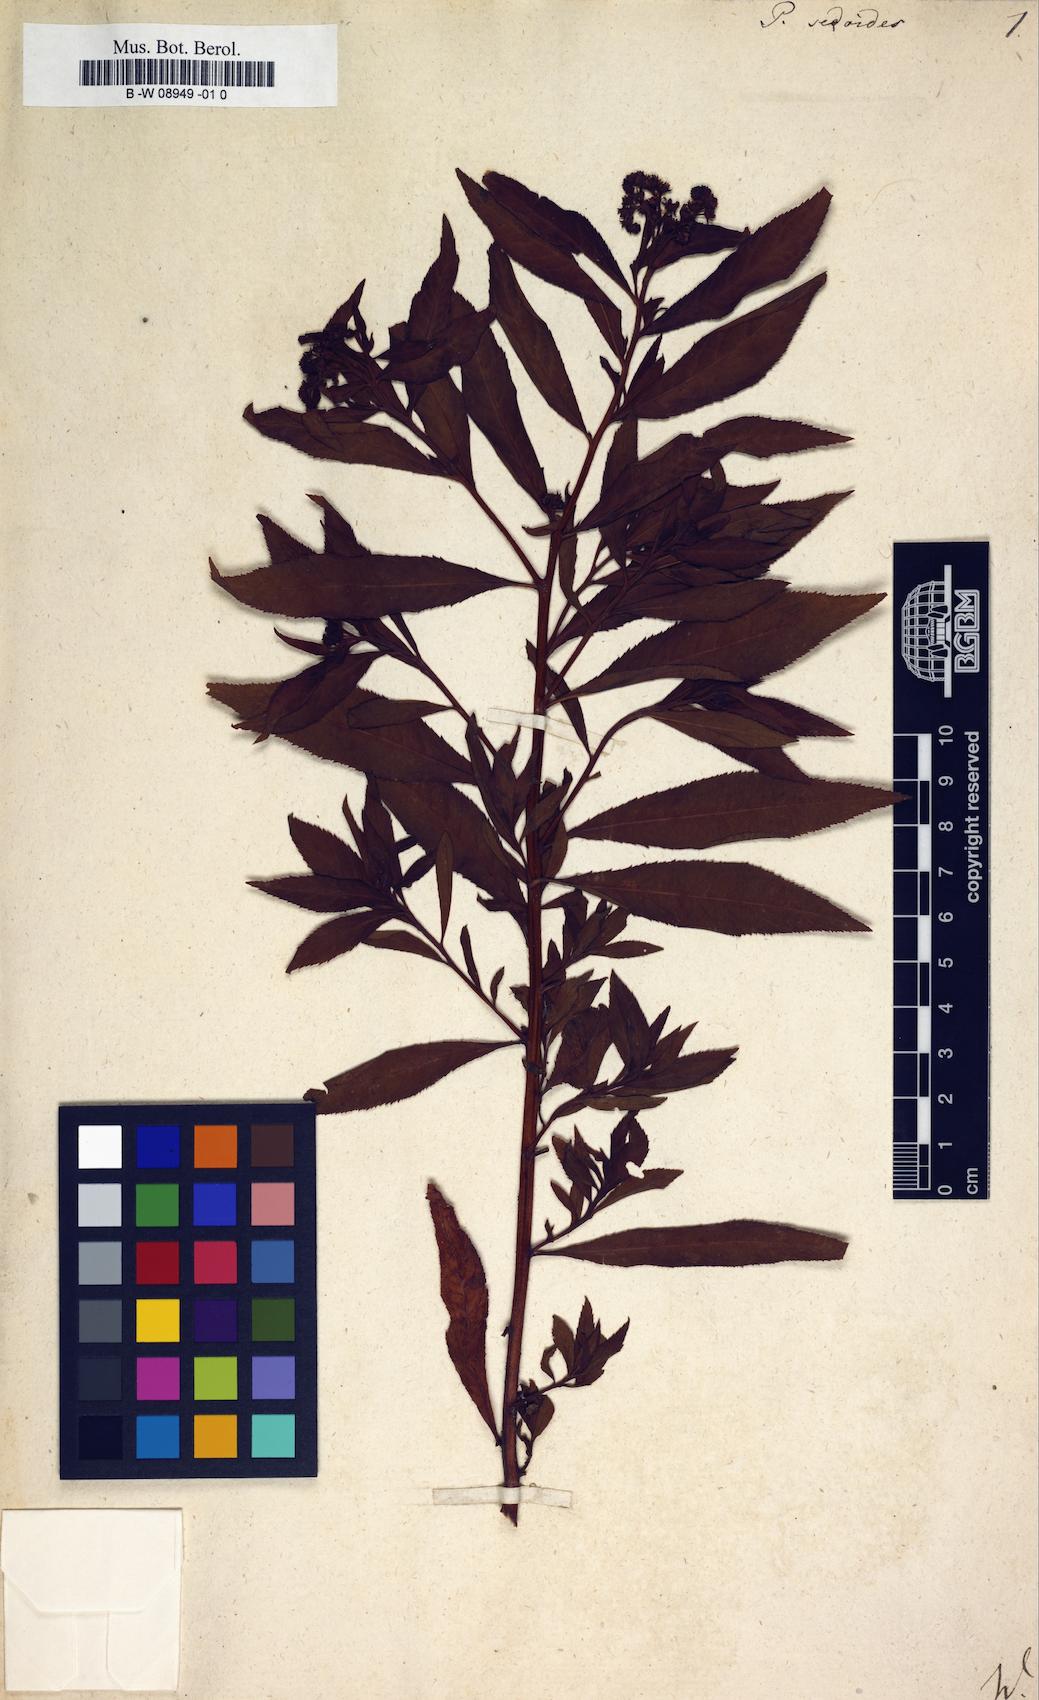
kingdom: Plantae
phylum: Tracheophyta
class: Magnoliopsida
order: Saxifragales
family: Penthoraceae
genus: Penthorum
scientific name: Penthorum sedoides
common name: Ditch stonecrop
